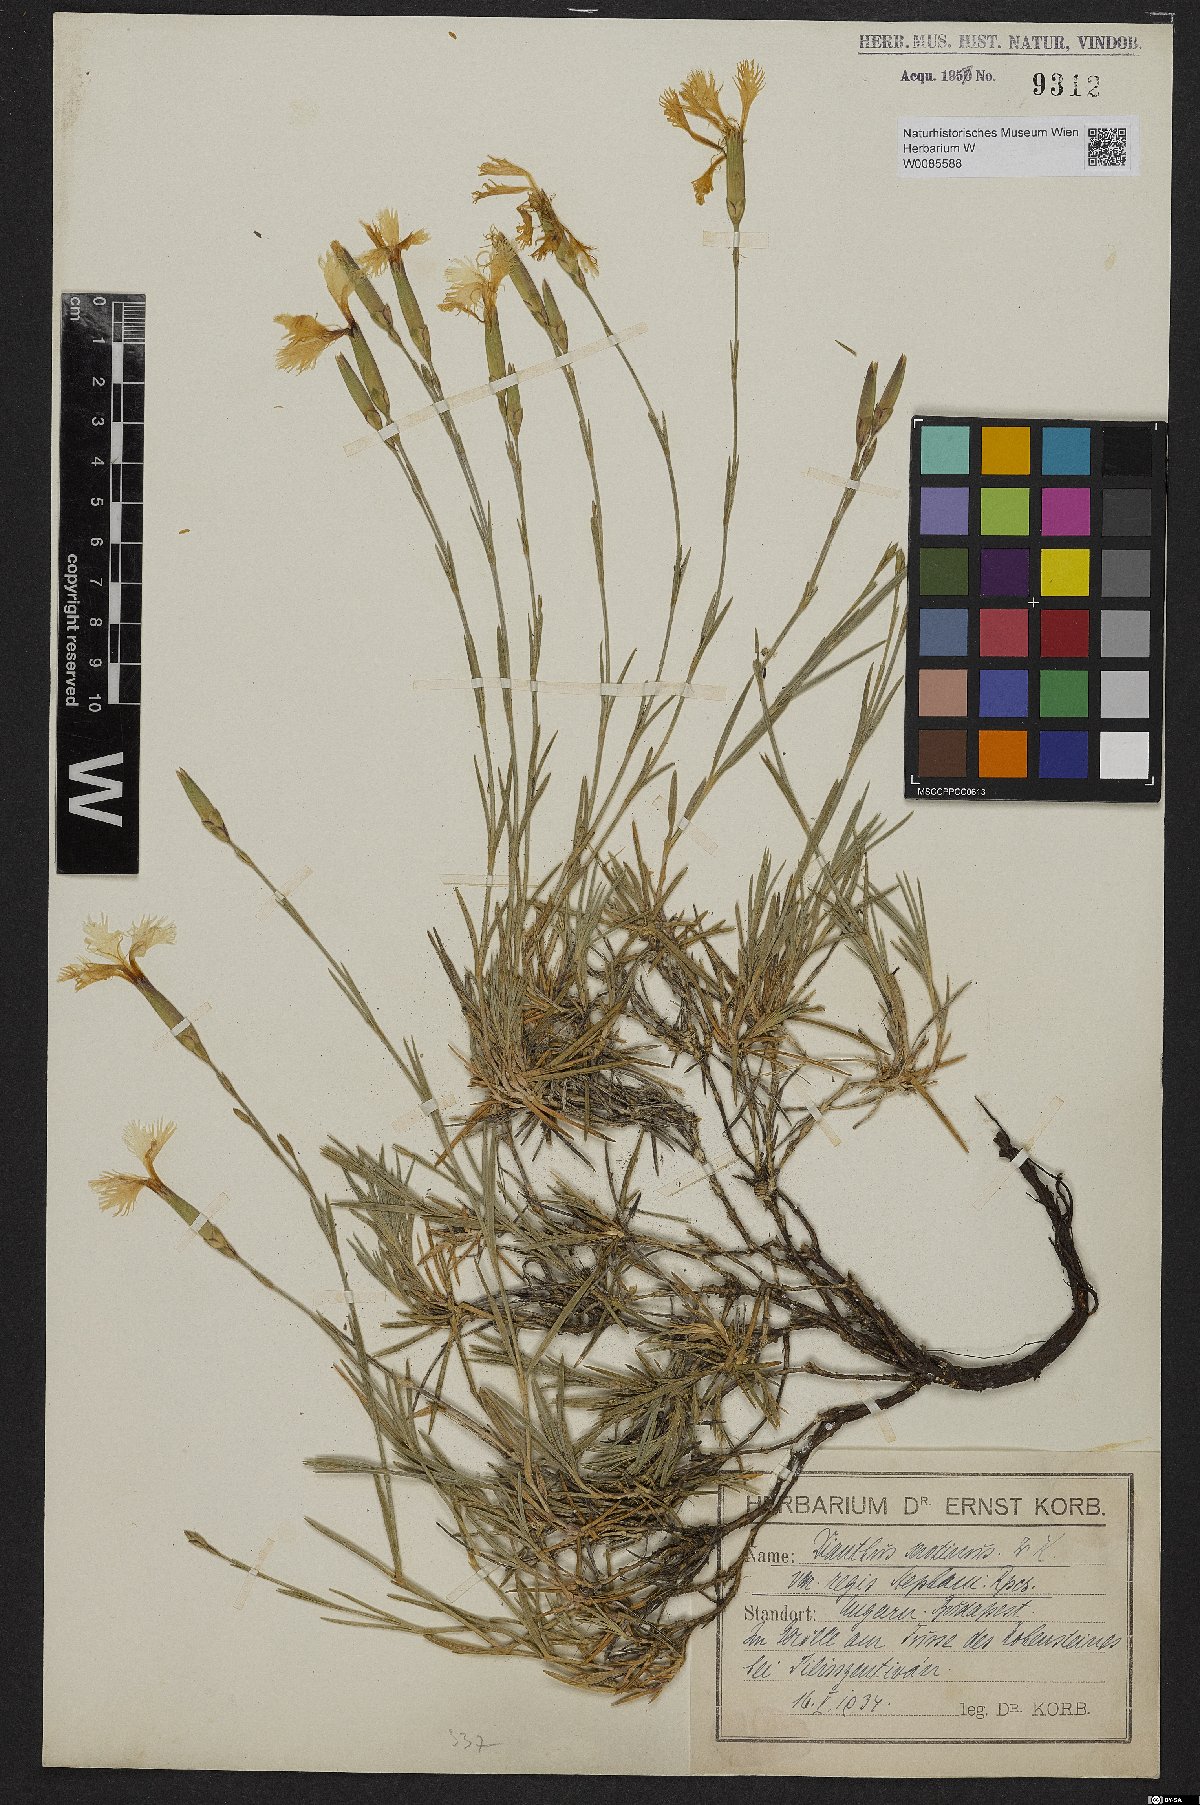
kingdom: Plantae
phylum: Tracheophyta
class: Magnoliopsida
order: Caryophyllales
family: Caryophyllaceae
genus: Dianthus
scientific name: Dianthus plumarius
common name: Pink
